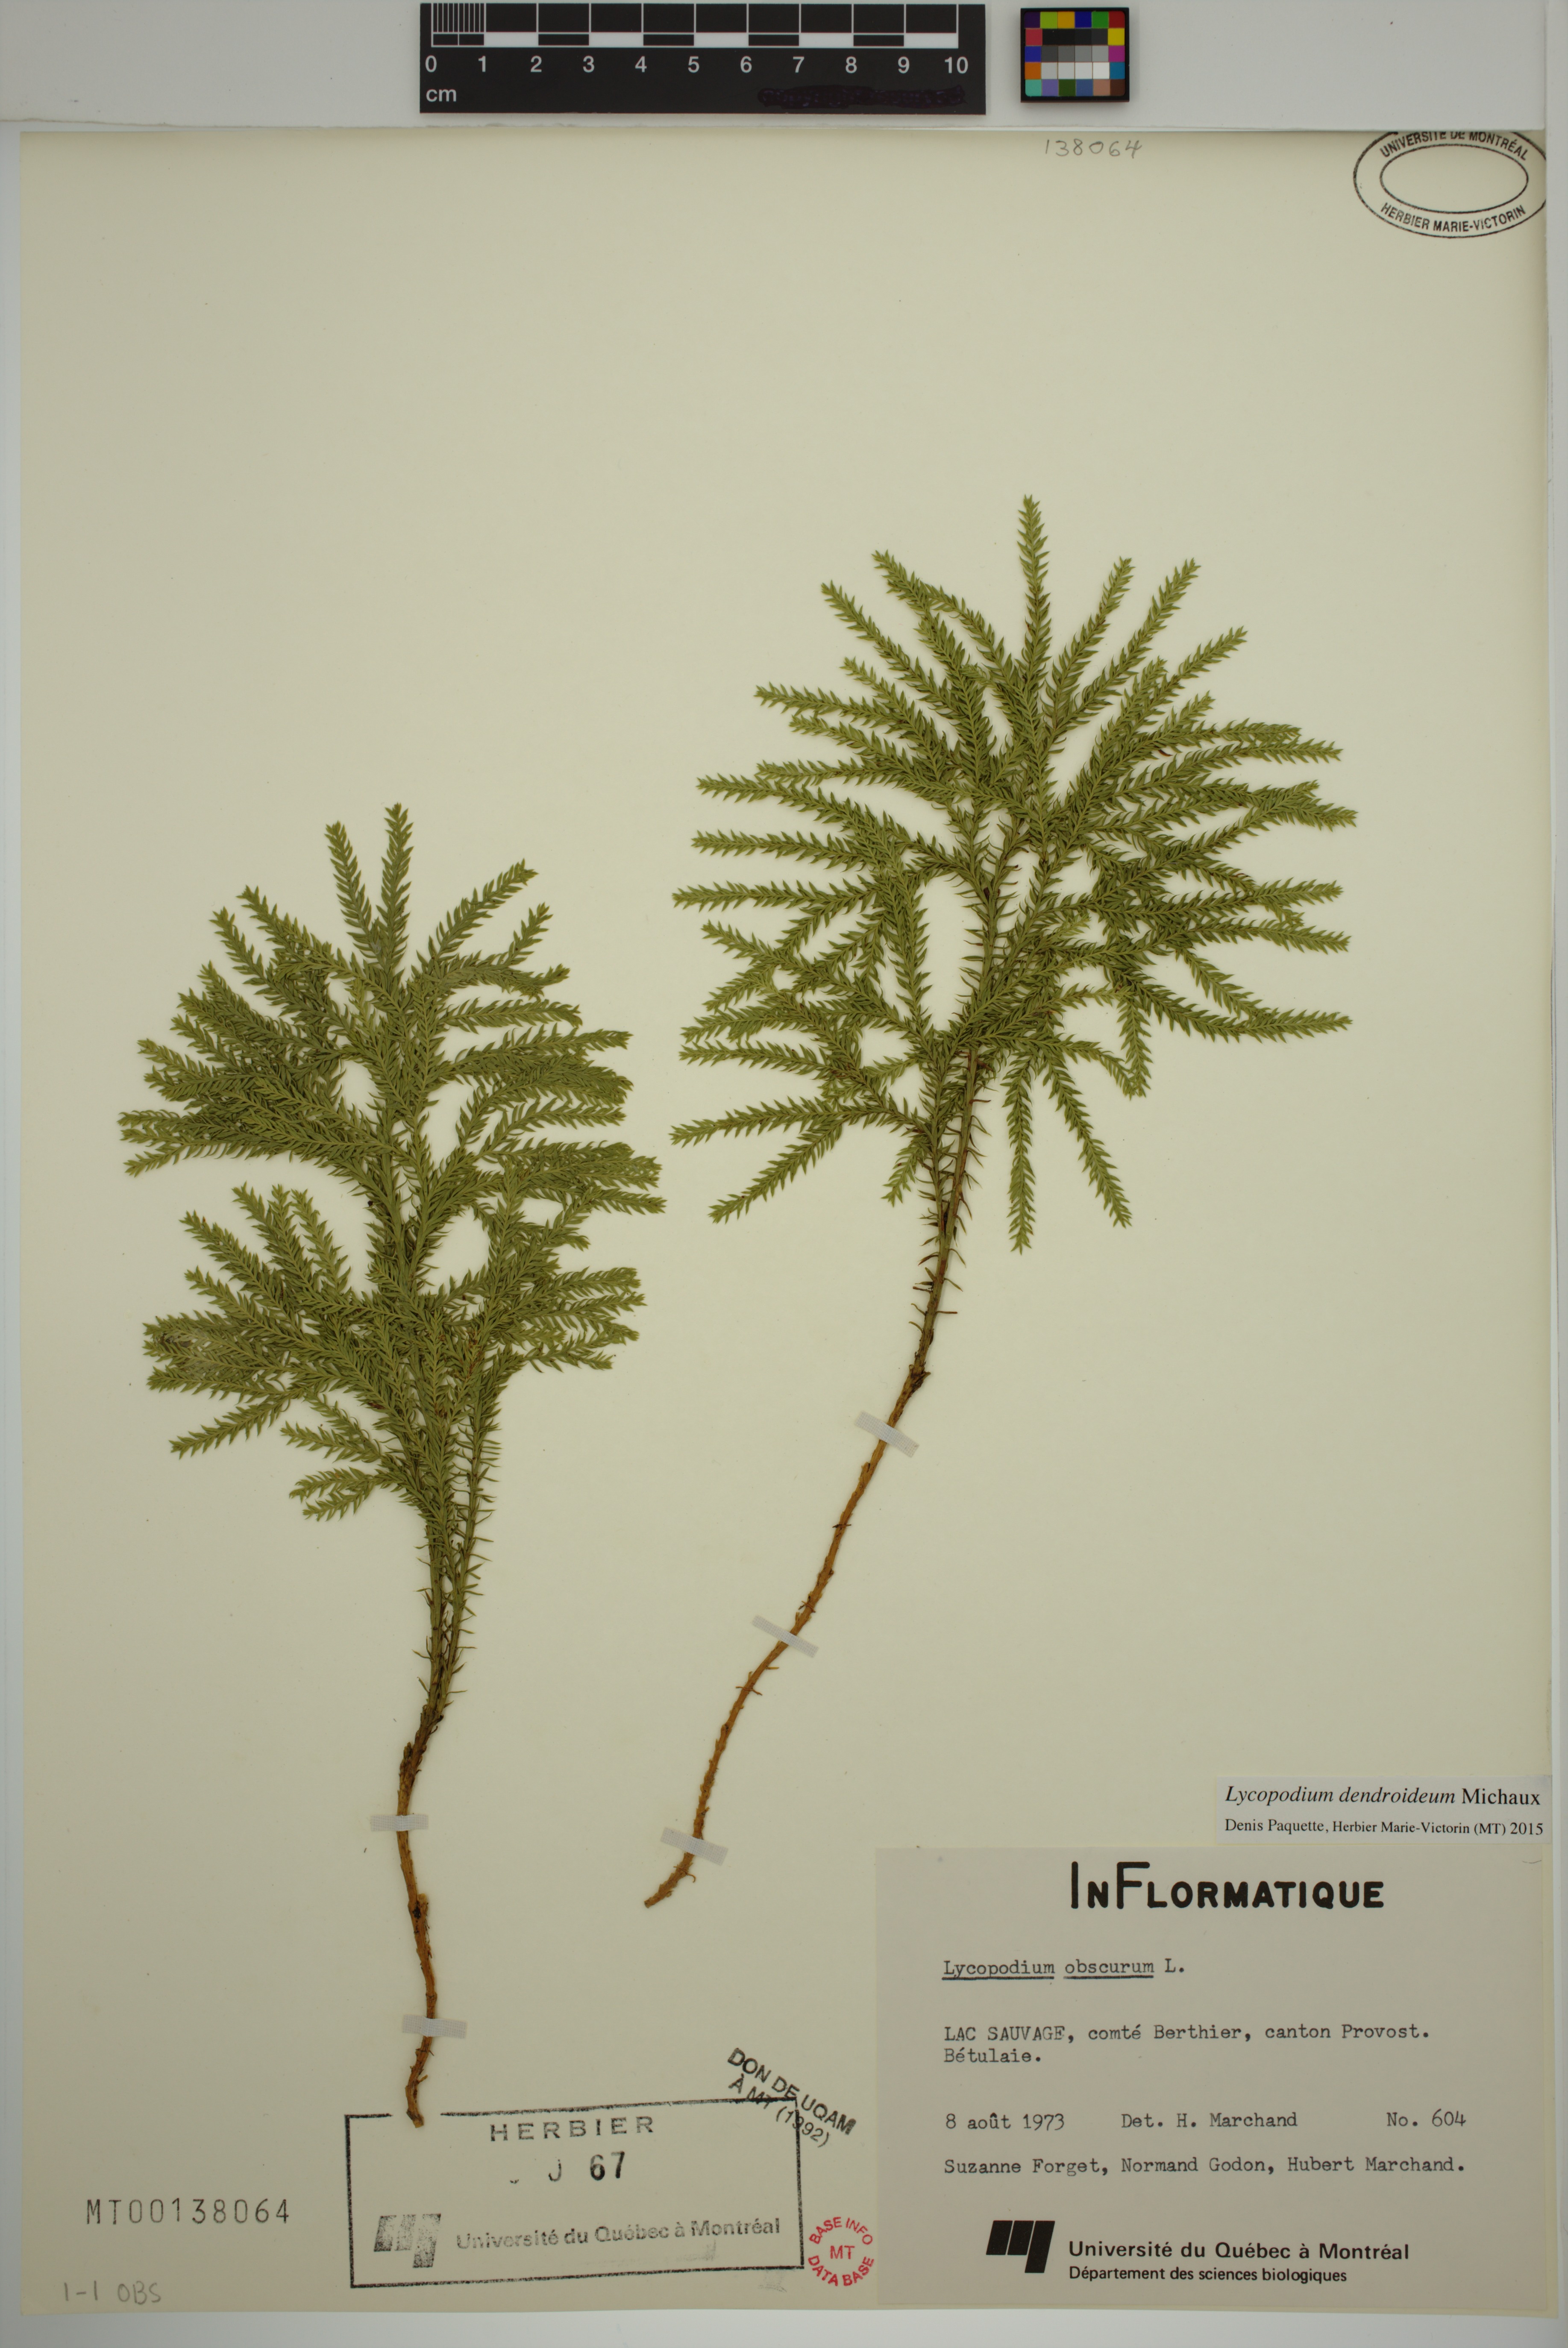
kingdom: Plantae
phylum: Tracheophyta
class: Lycopodiopsida
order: Lycopodiales
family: Lycopodiaceae
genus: Dendrolycopodium
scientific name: Dendrolycopodium dendroideum
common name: Northern tree-clubmoss
